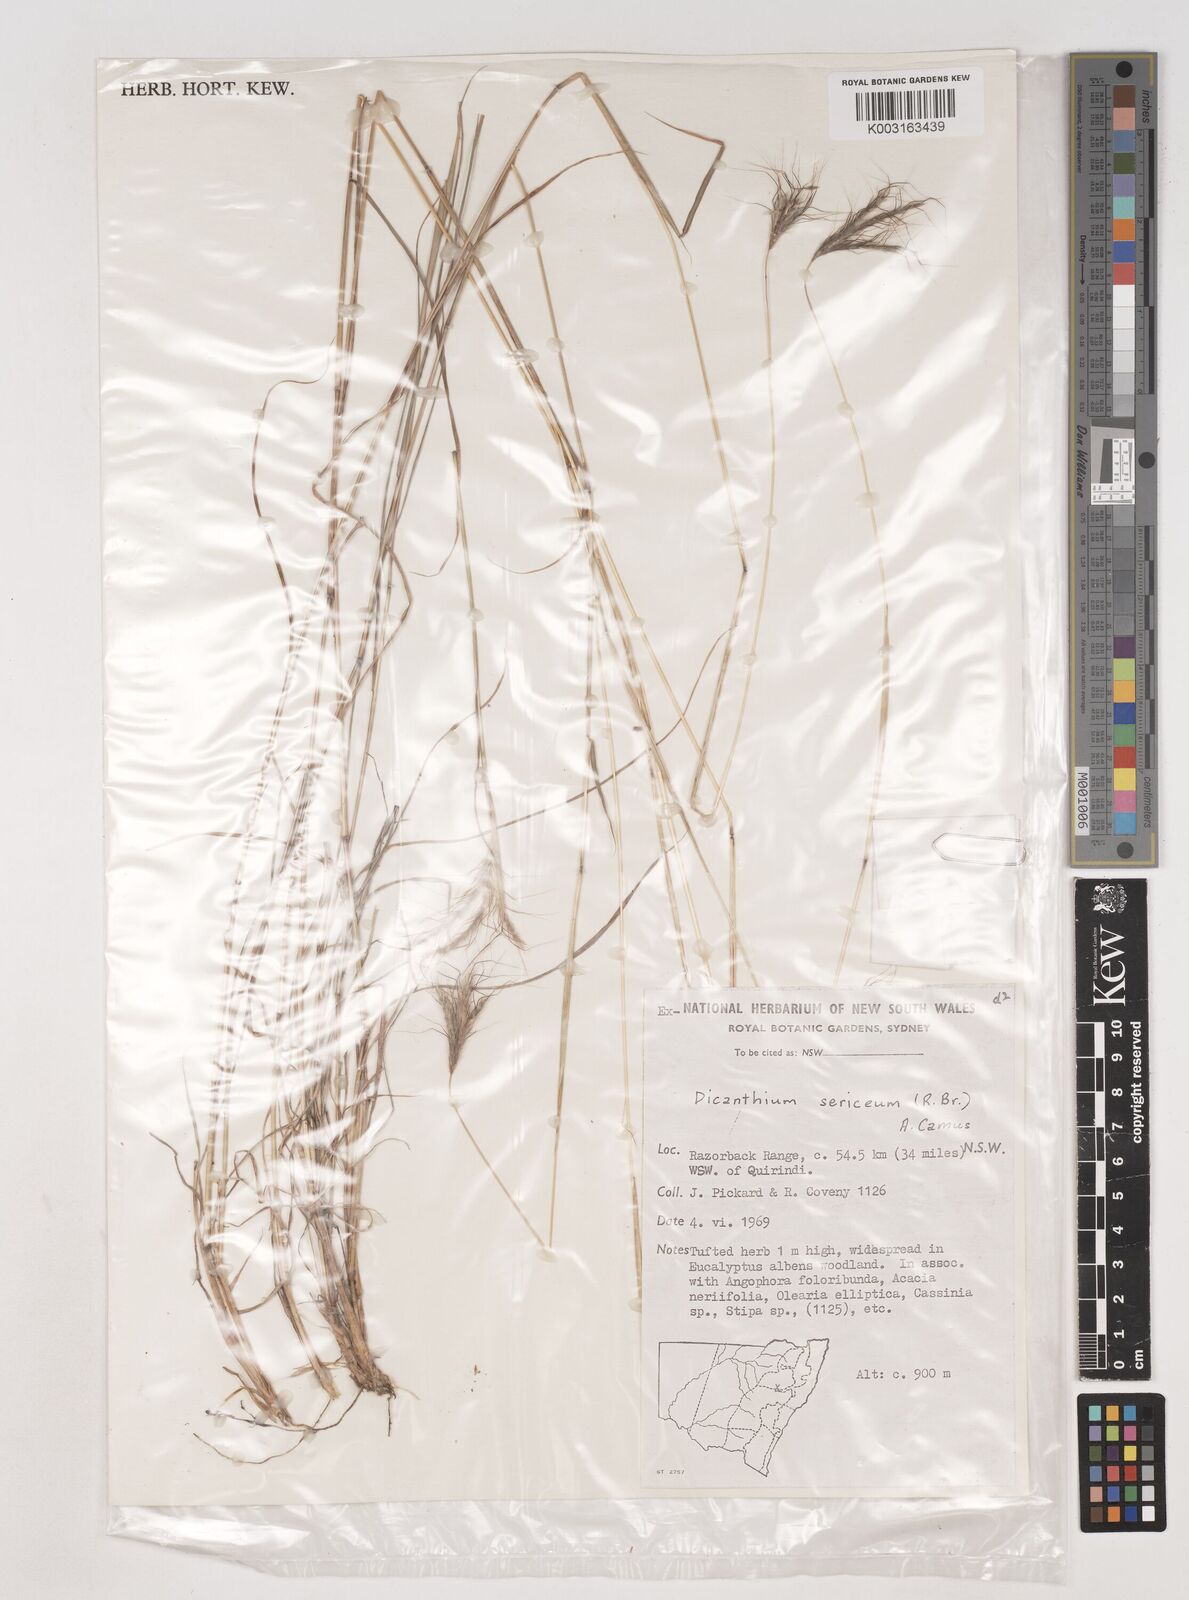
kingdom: Plantae
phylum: Tracheophyta
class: Liliopsida
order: Poales
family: Poaceae
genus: Dichanthium
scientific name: Dichanthium sericeum
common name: Silky bluestem
